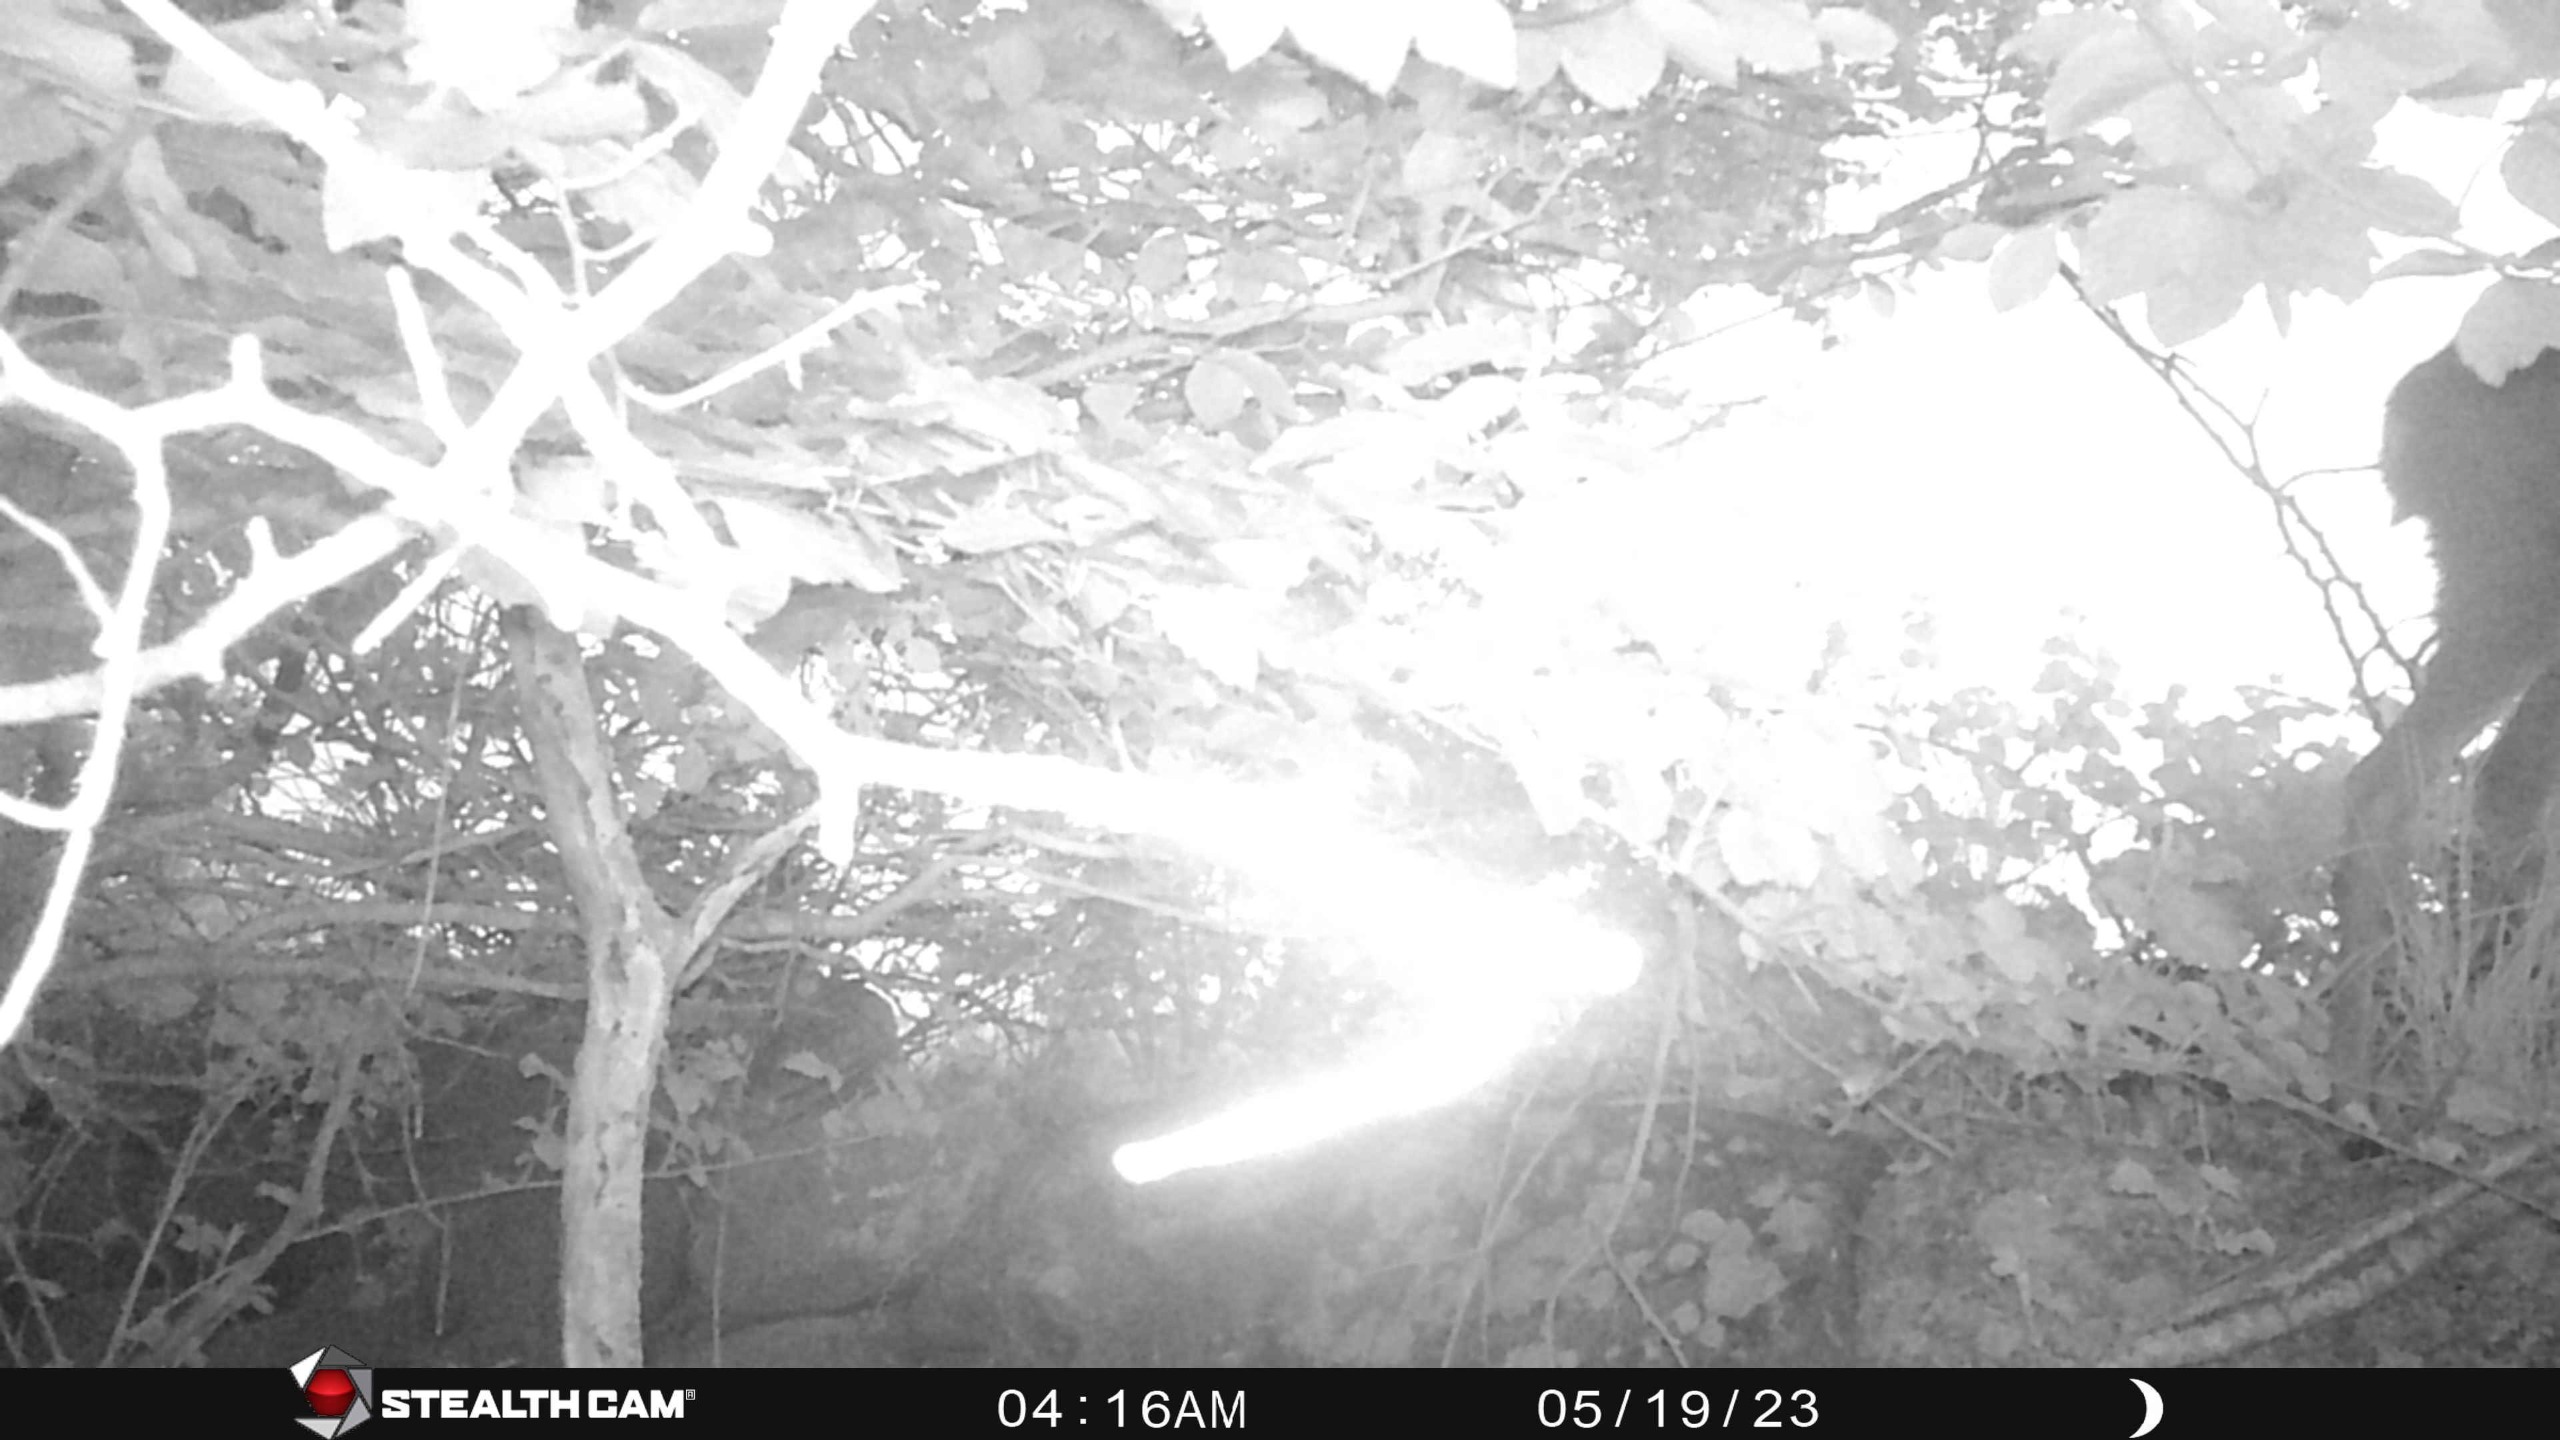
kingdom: Animalia
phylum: Chordata
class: Mammalia
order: Artiodactyla
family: Cervidae
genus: Capreolus
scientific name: Capreolus capreolus
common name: Rådyr
